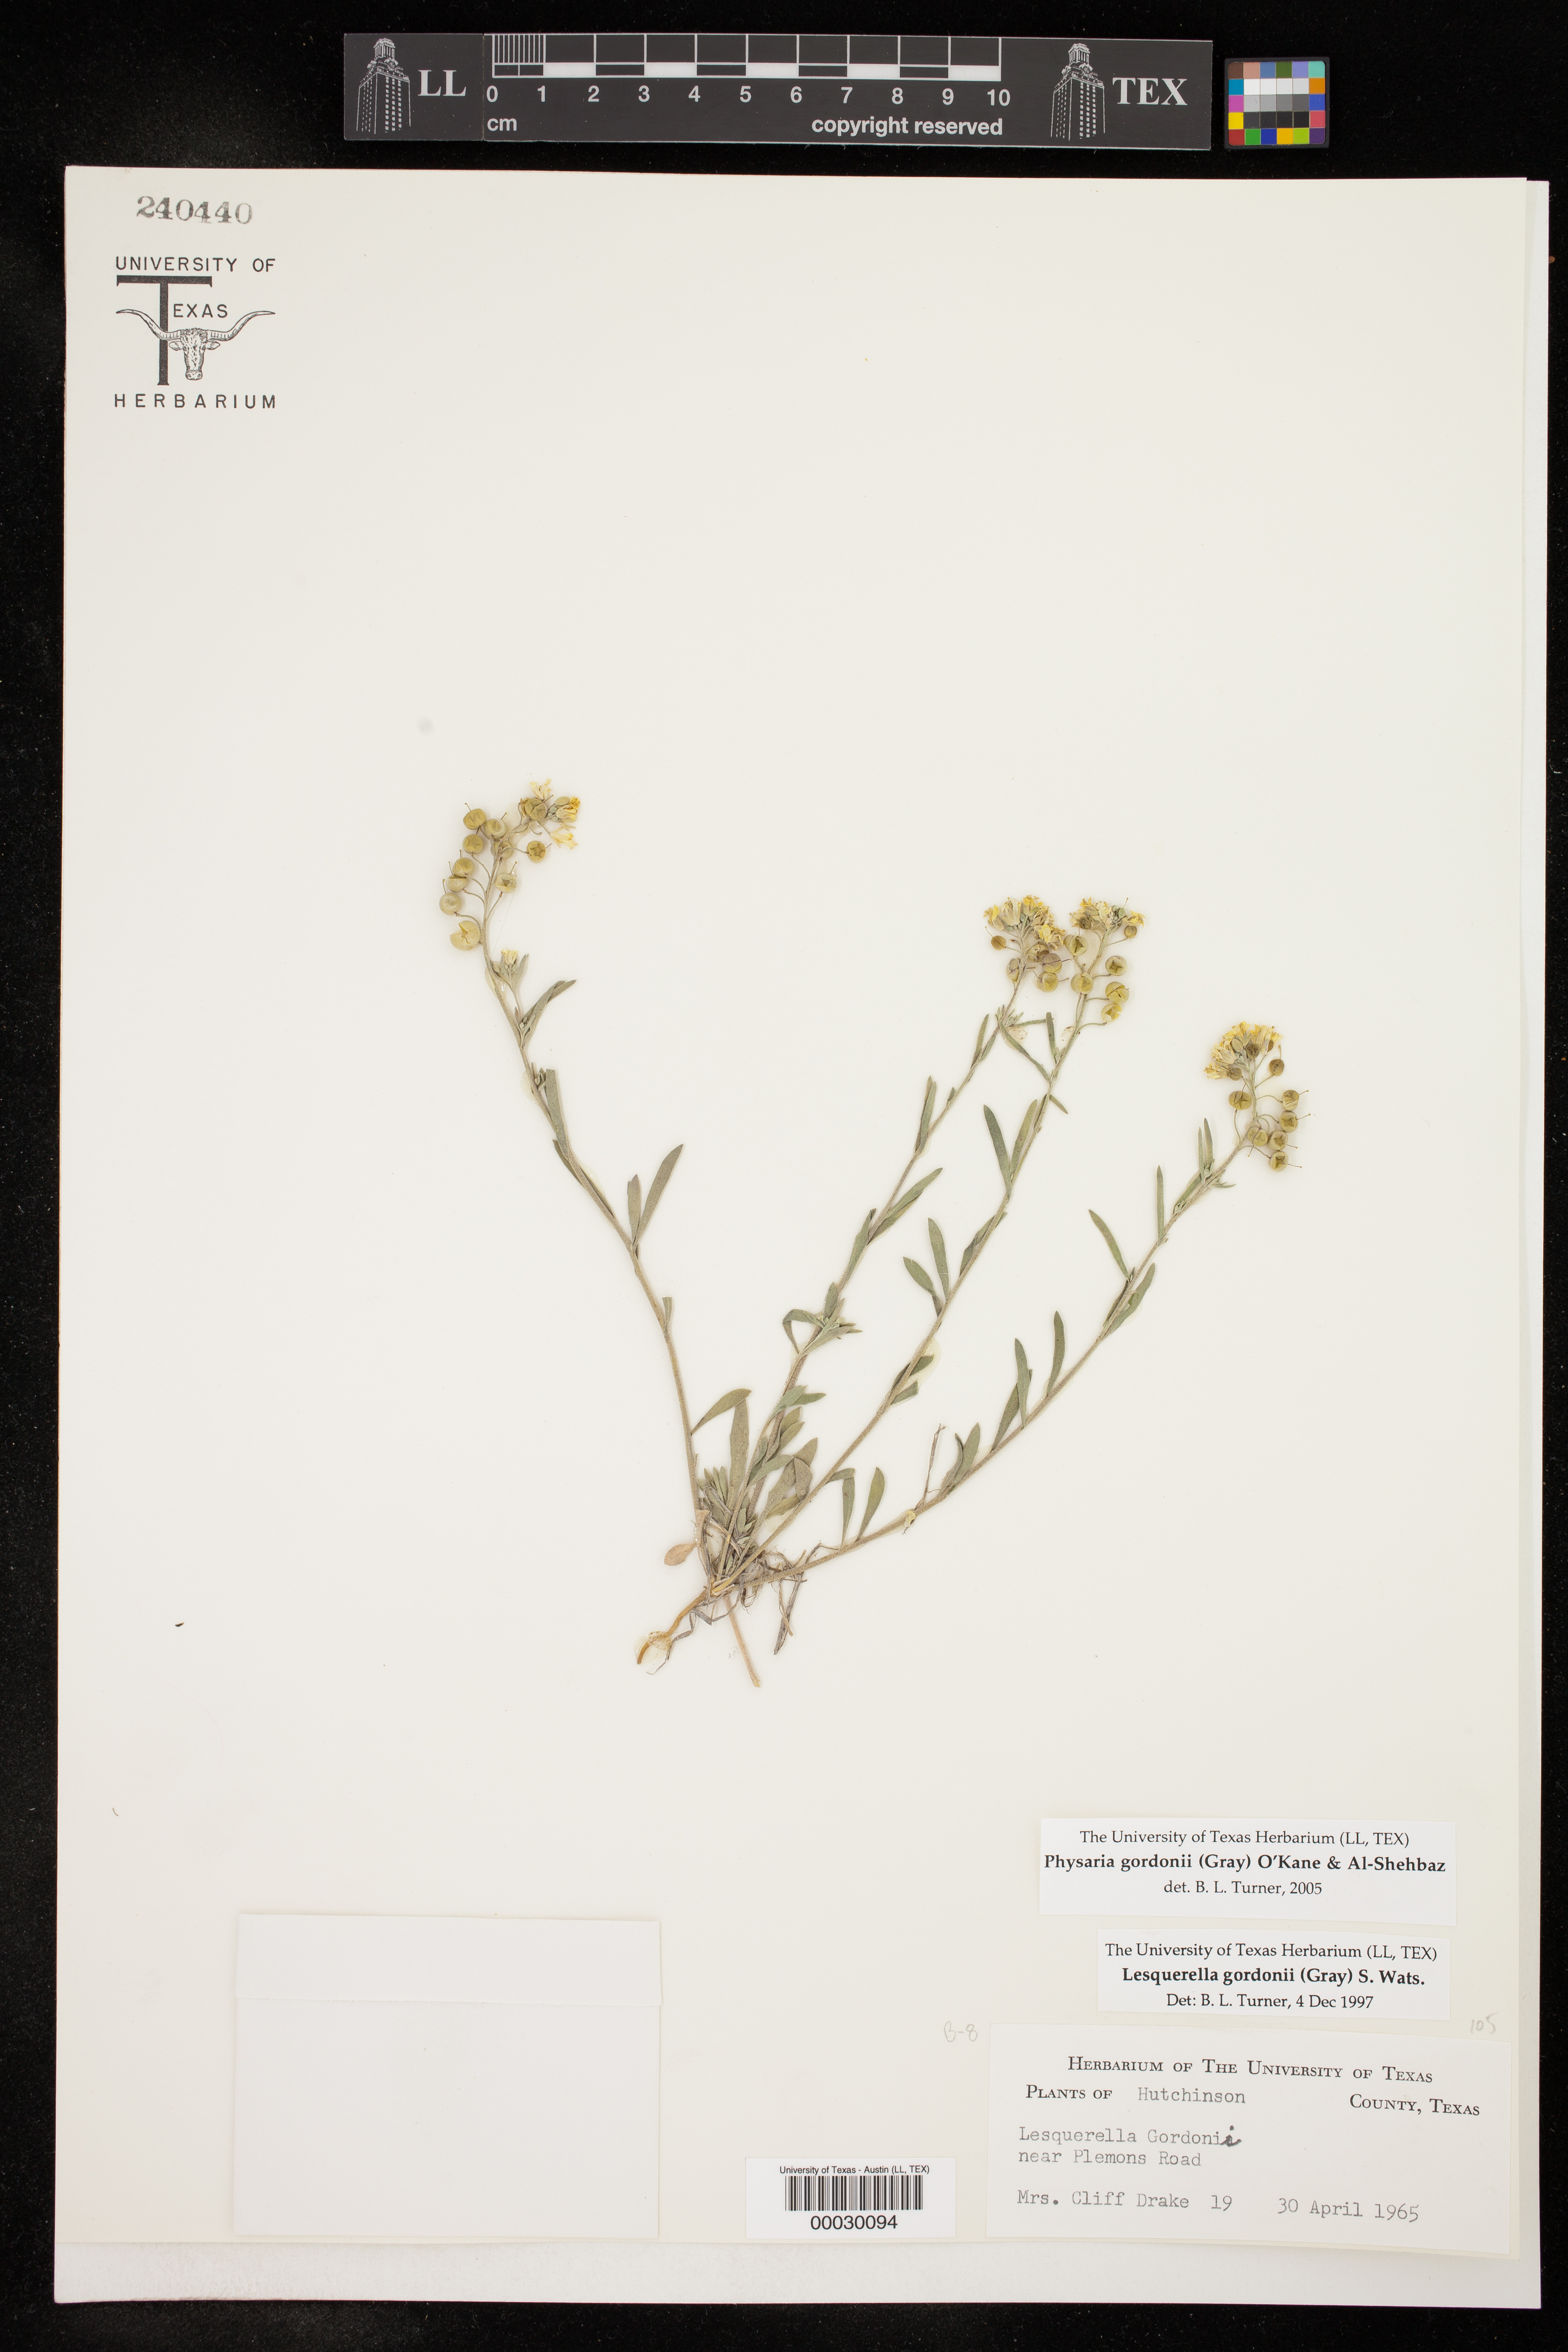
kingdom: Plantae
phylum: Tracheophyta
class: Magnoliopsida
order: Brassicales
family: Brassicaceae
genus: Physaria
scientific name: Physaria gordonii
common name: Gordon's bladderpod
